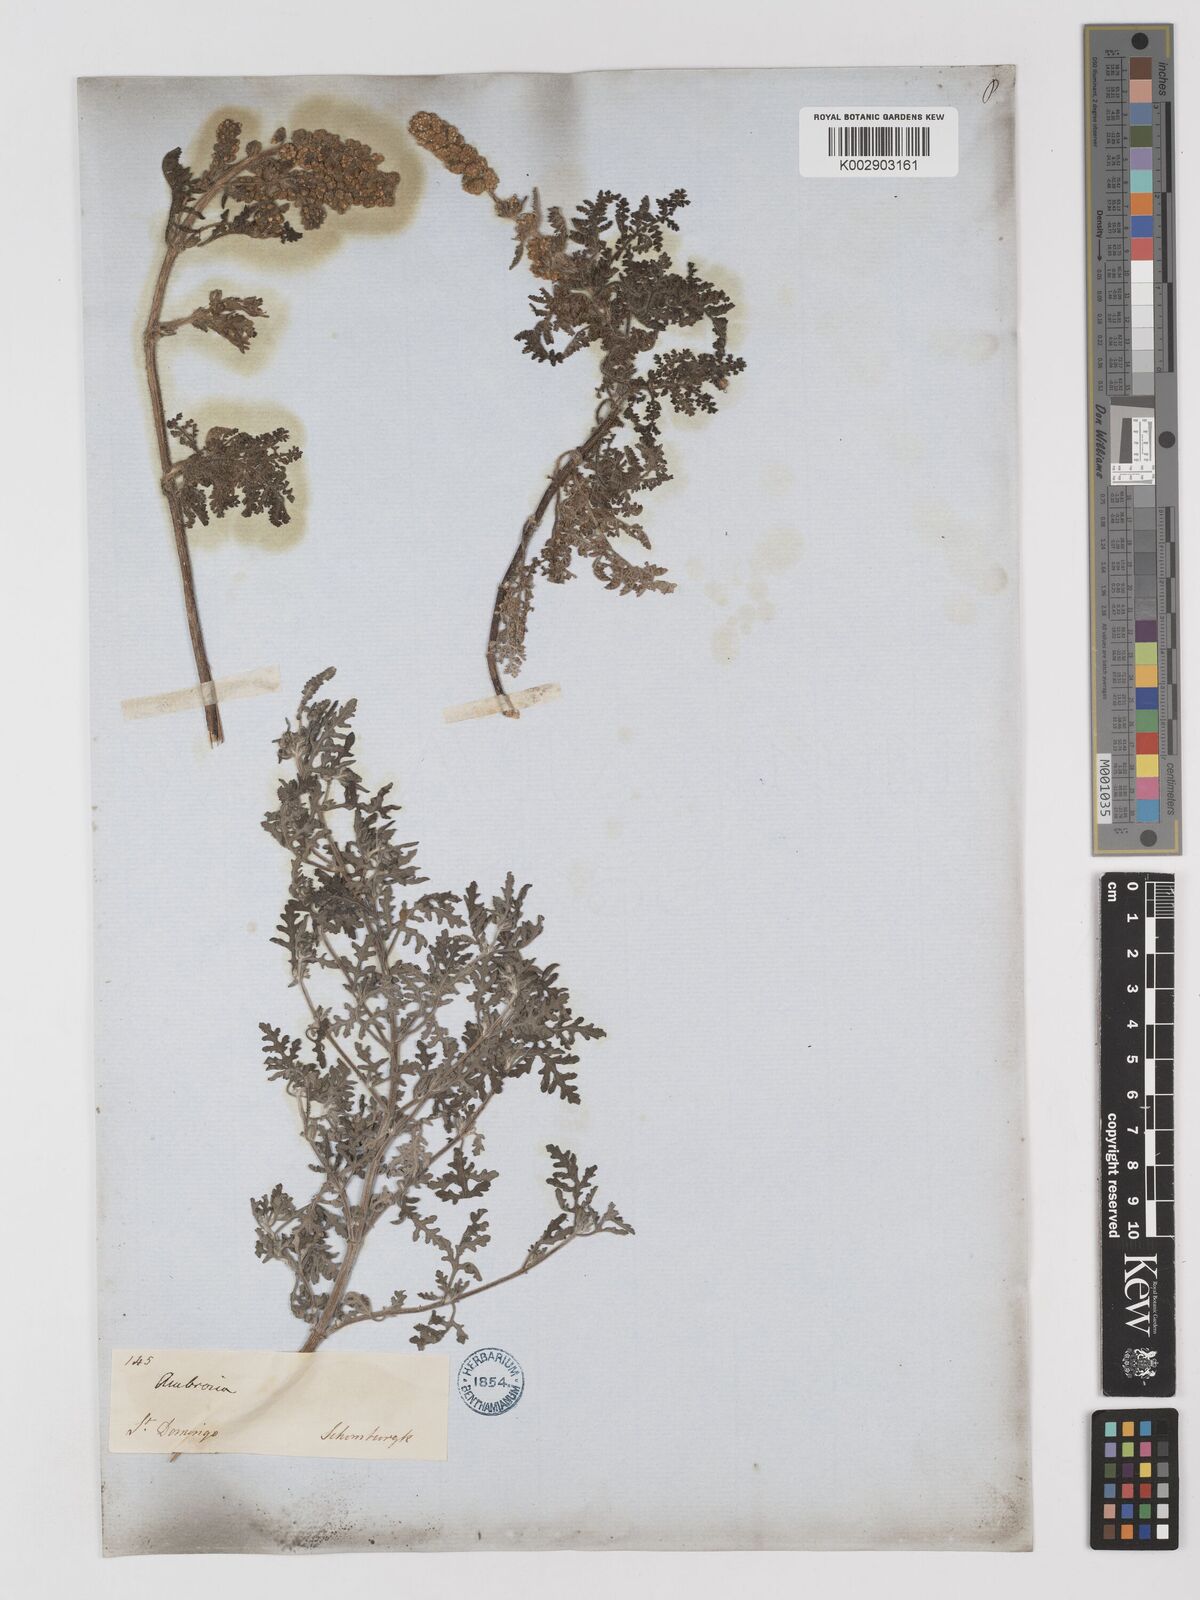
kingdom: Plantae
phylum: Tracheophyta
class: Magnoliopsida
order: Asterales
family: Asteraceae
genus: Ambrosia
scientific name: Ambrosia velutina
